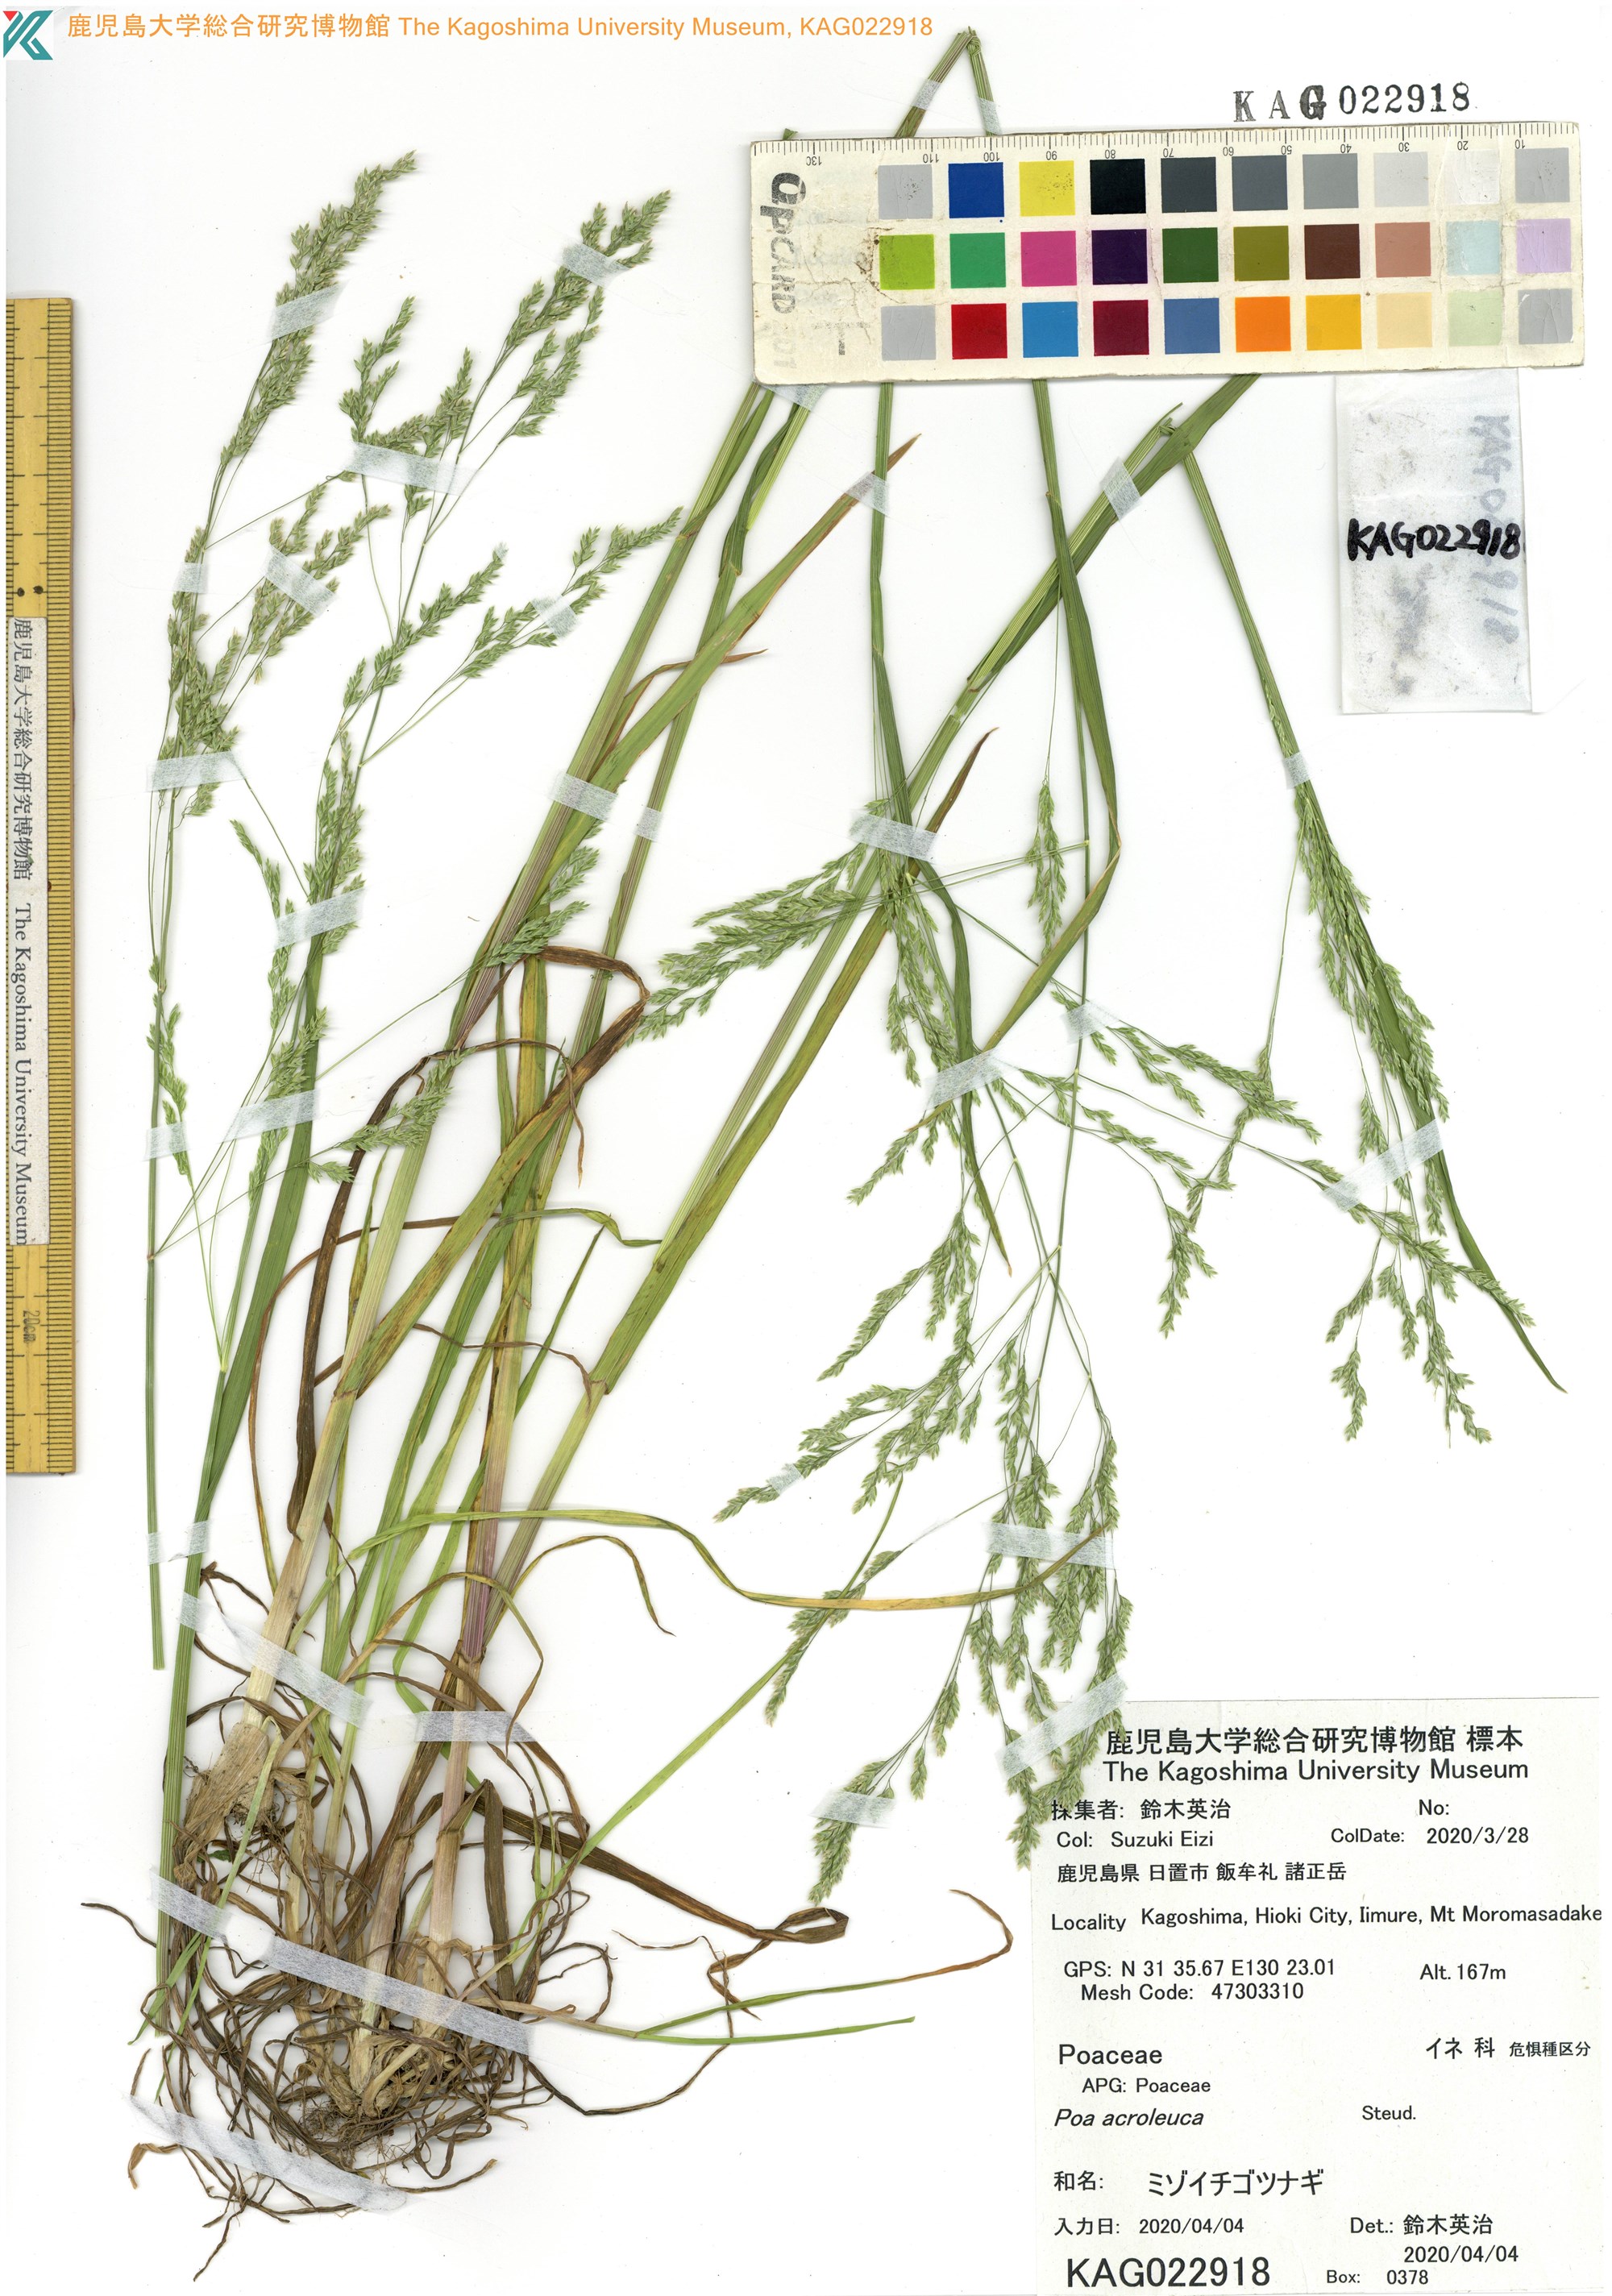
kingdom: Plantae
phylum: Tracheophyta
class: Liliopsida
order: Poales
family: Poaceae
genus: Poa
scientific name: Poa acroleuca
